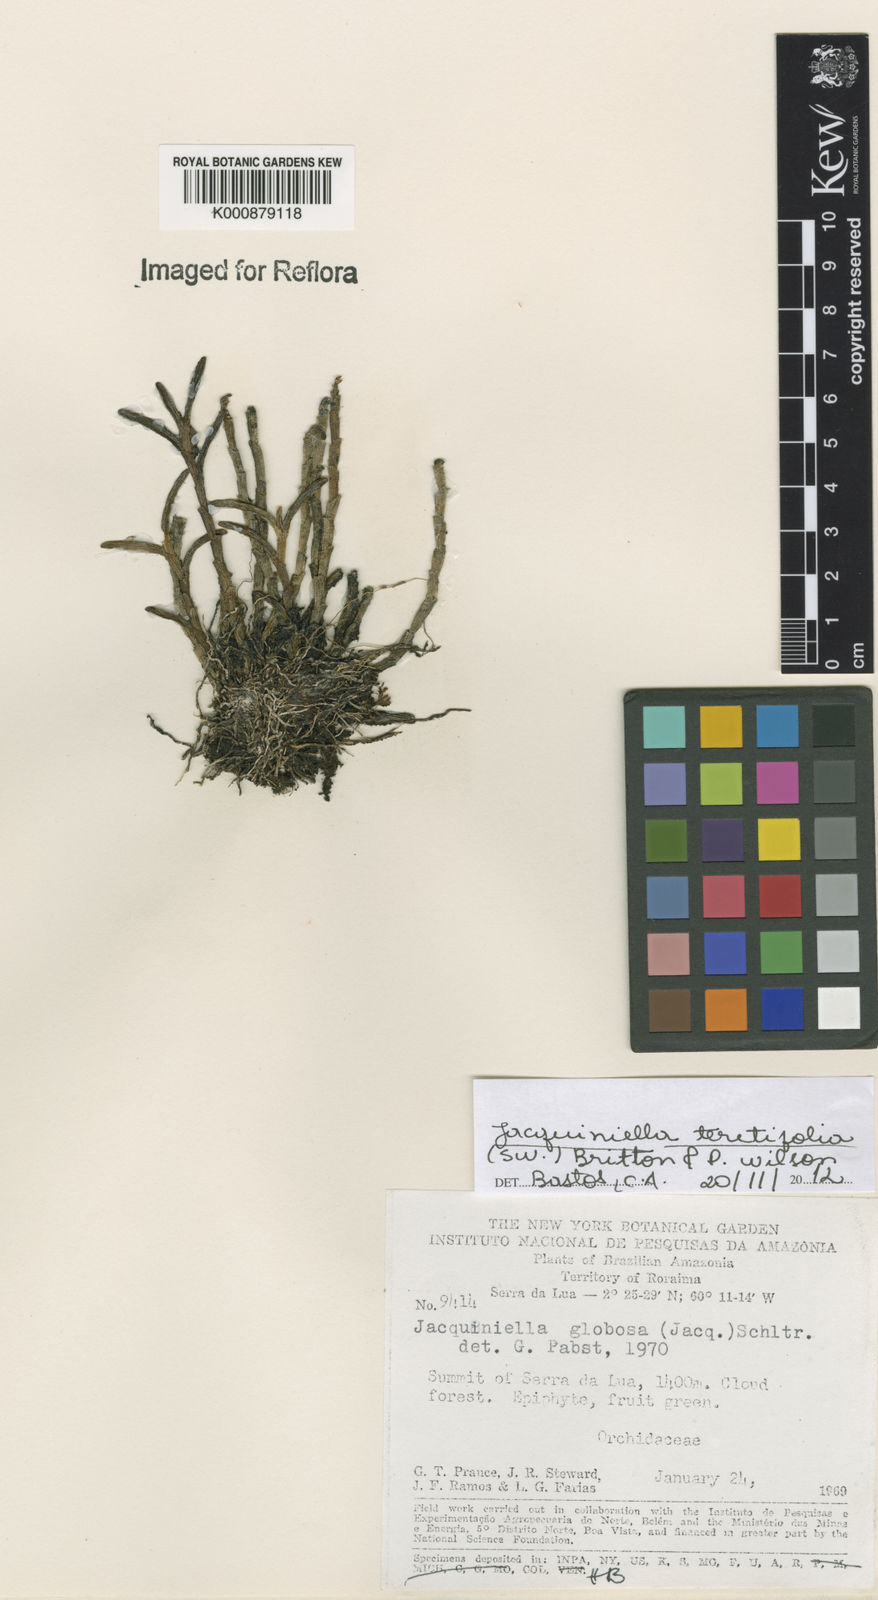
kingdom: Plantae
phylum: Tracheophyta
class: Liliopsida
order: Asparagales
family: Orchidaceae
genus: Jacquiniella
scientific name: Jacquiniella teretifolia
